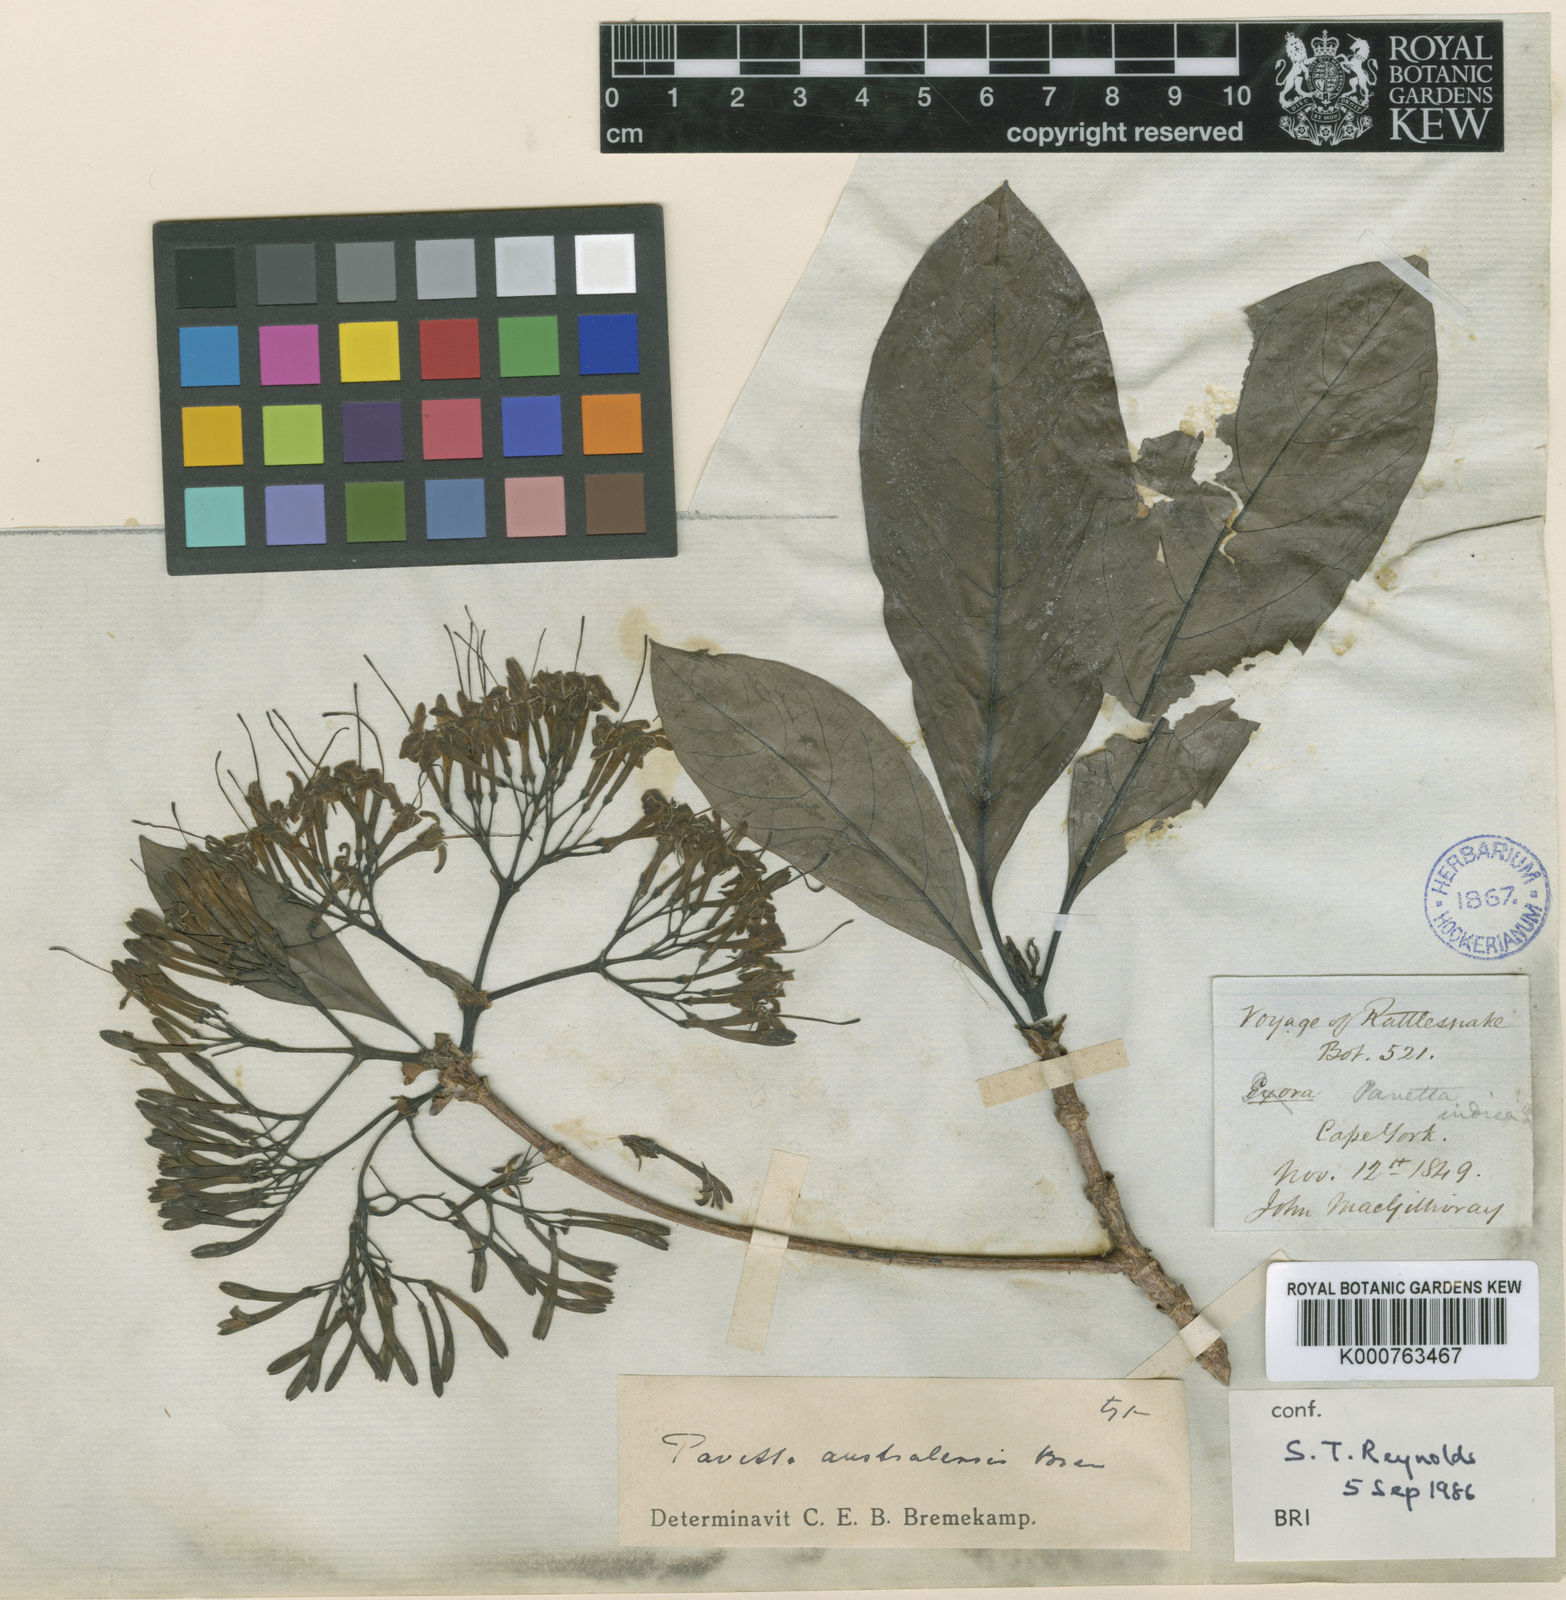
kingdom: Plantae
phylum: Tracheophyta
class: Magnoliopsida
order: Gentianales
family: Rubiaceae
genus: Pavetta
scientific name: Pavetta australiensis
